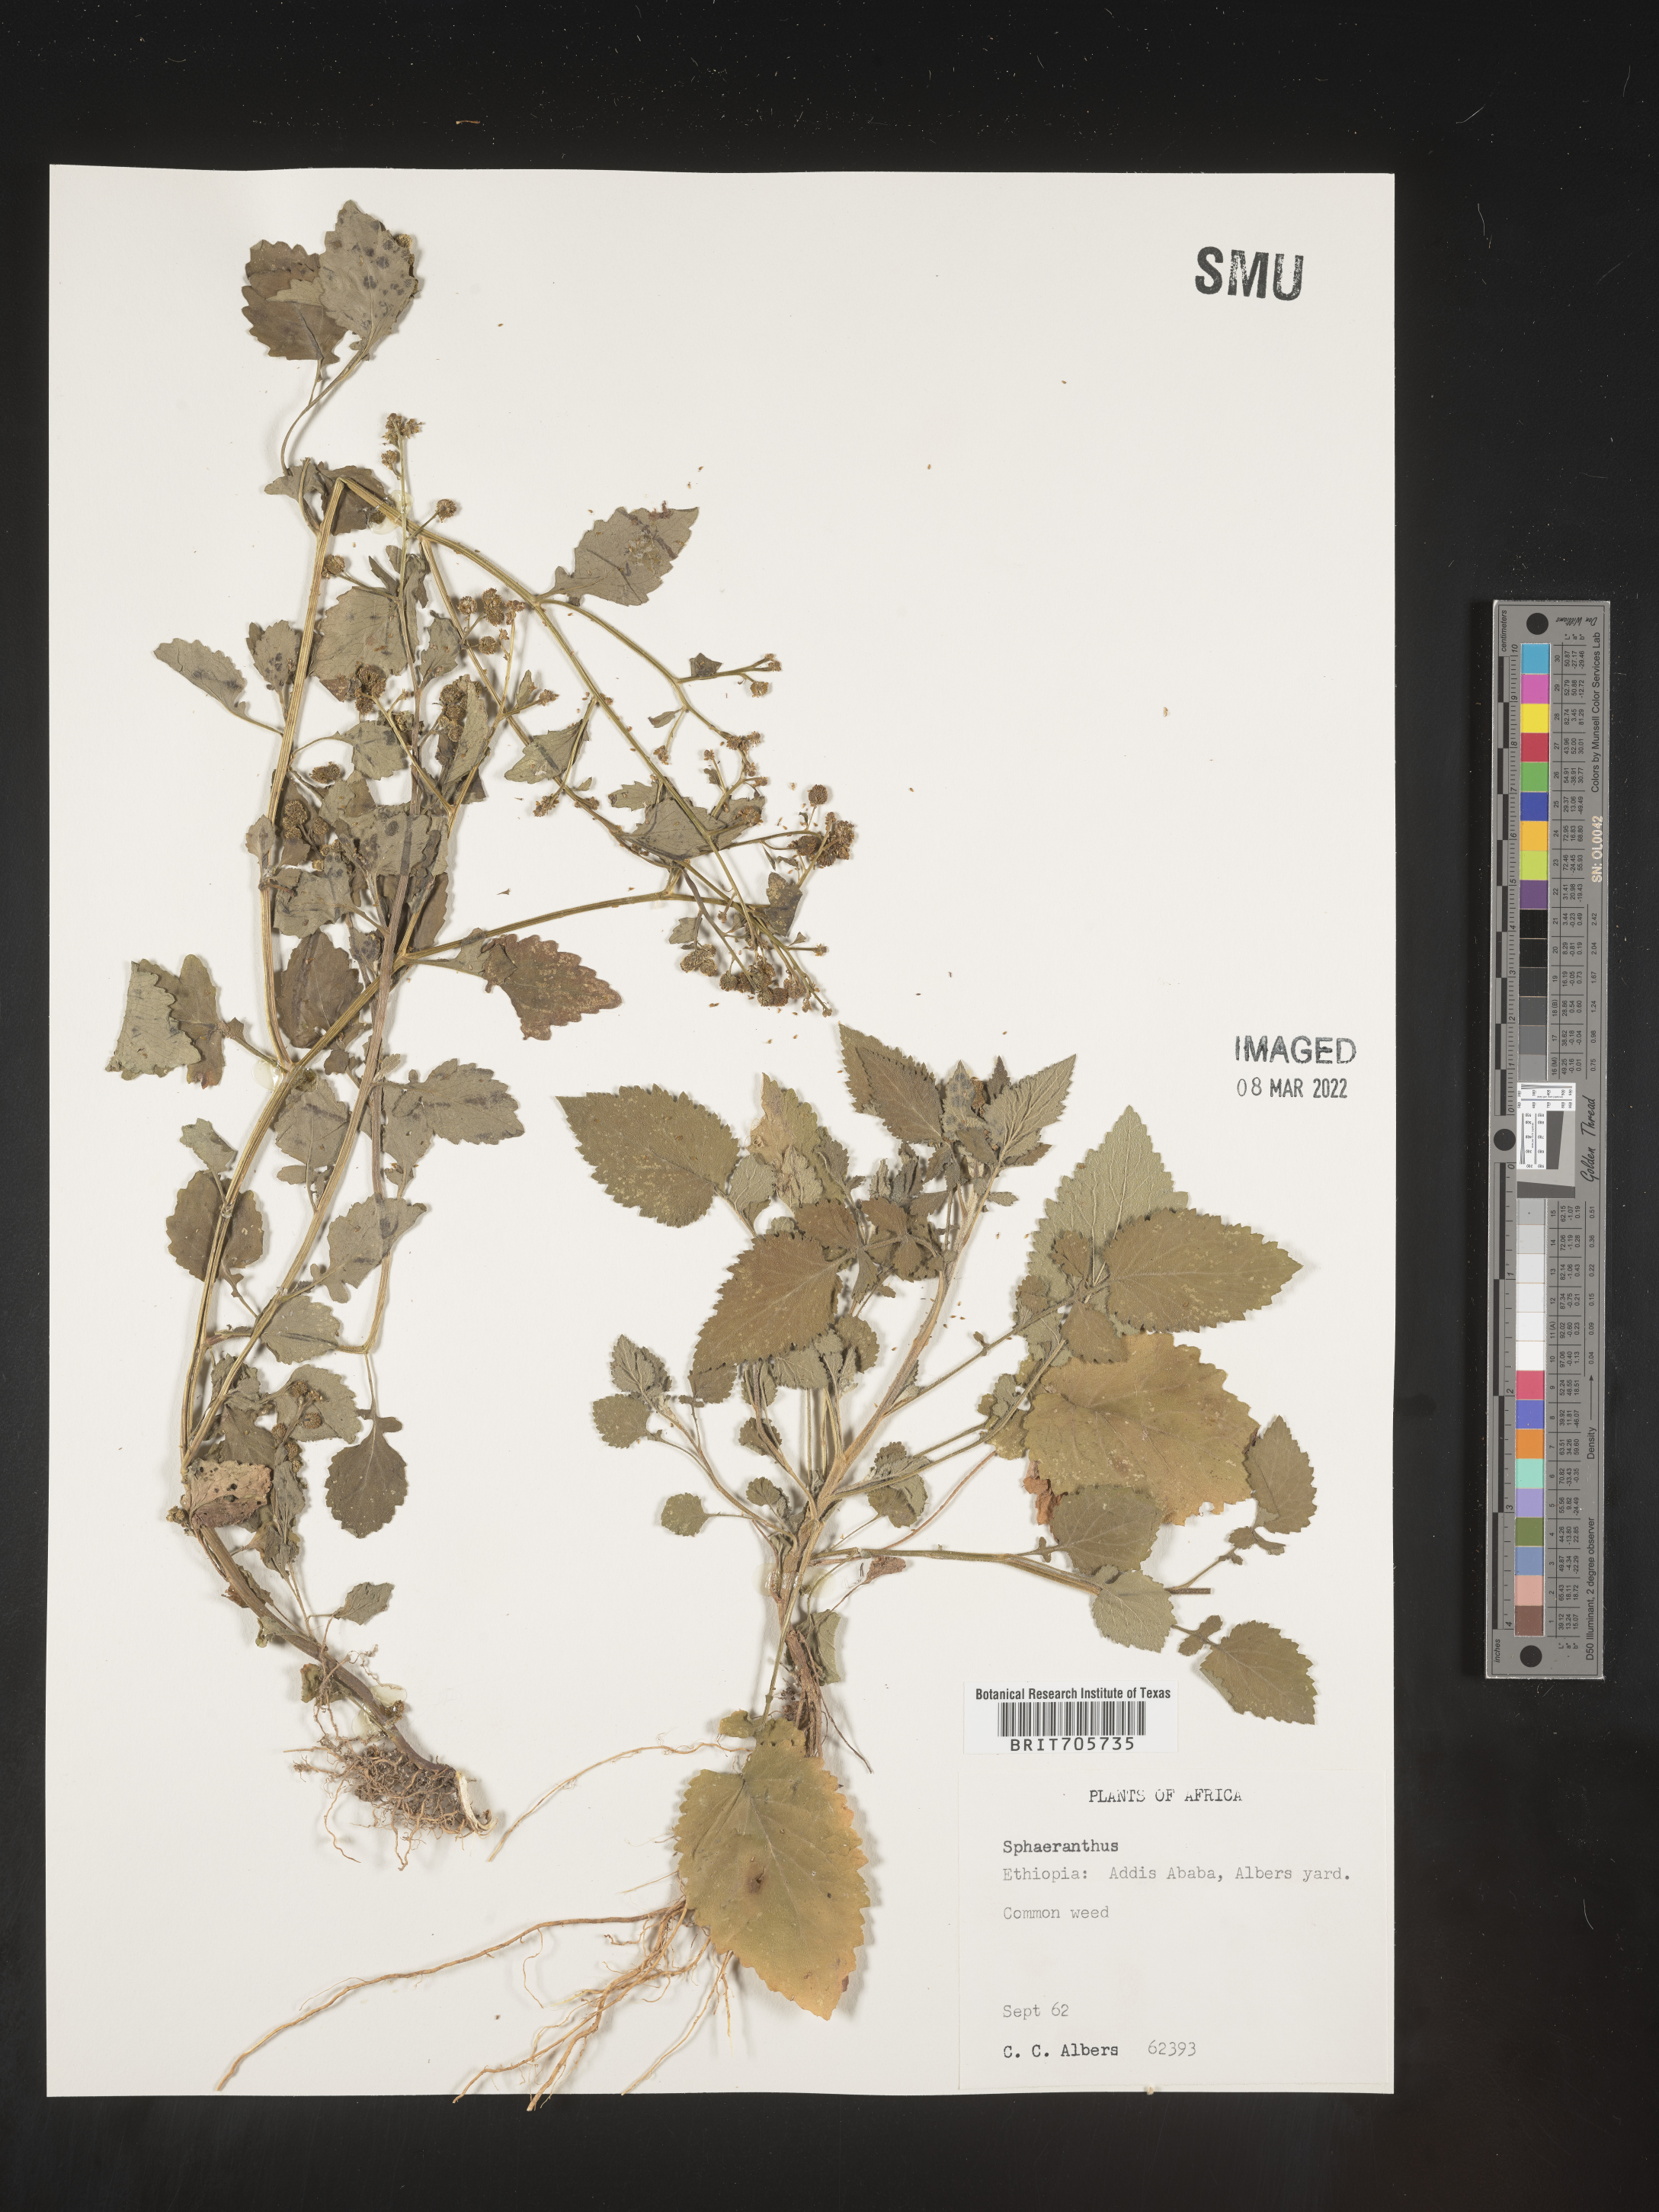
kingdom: Plantae
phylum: Tracheophyta
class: Magnoliopsida
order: Asterales
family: Asteraceae
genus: Sphaeranthus
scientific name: Sphaeranthus
